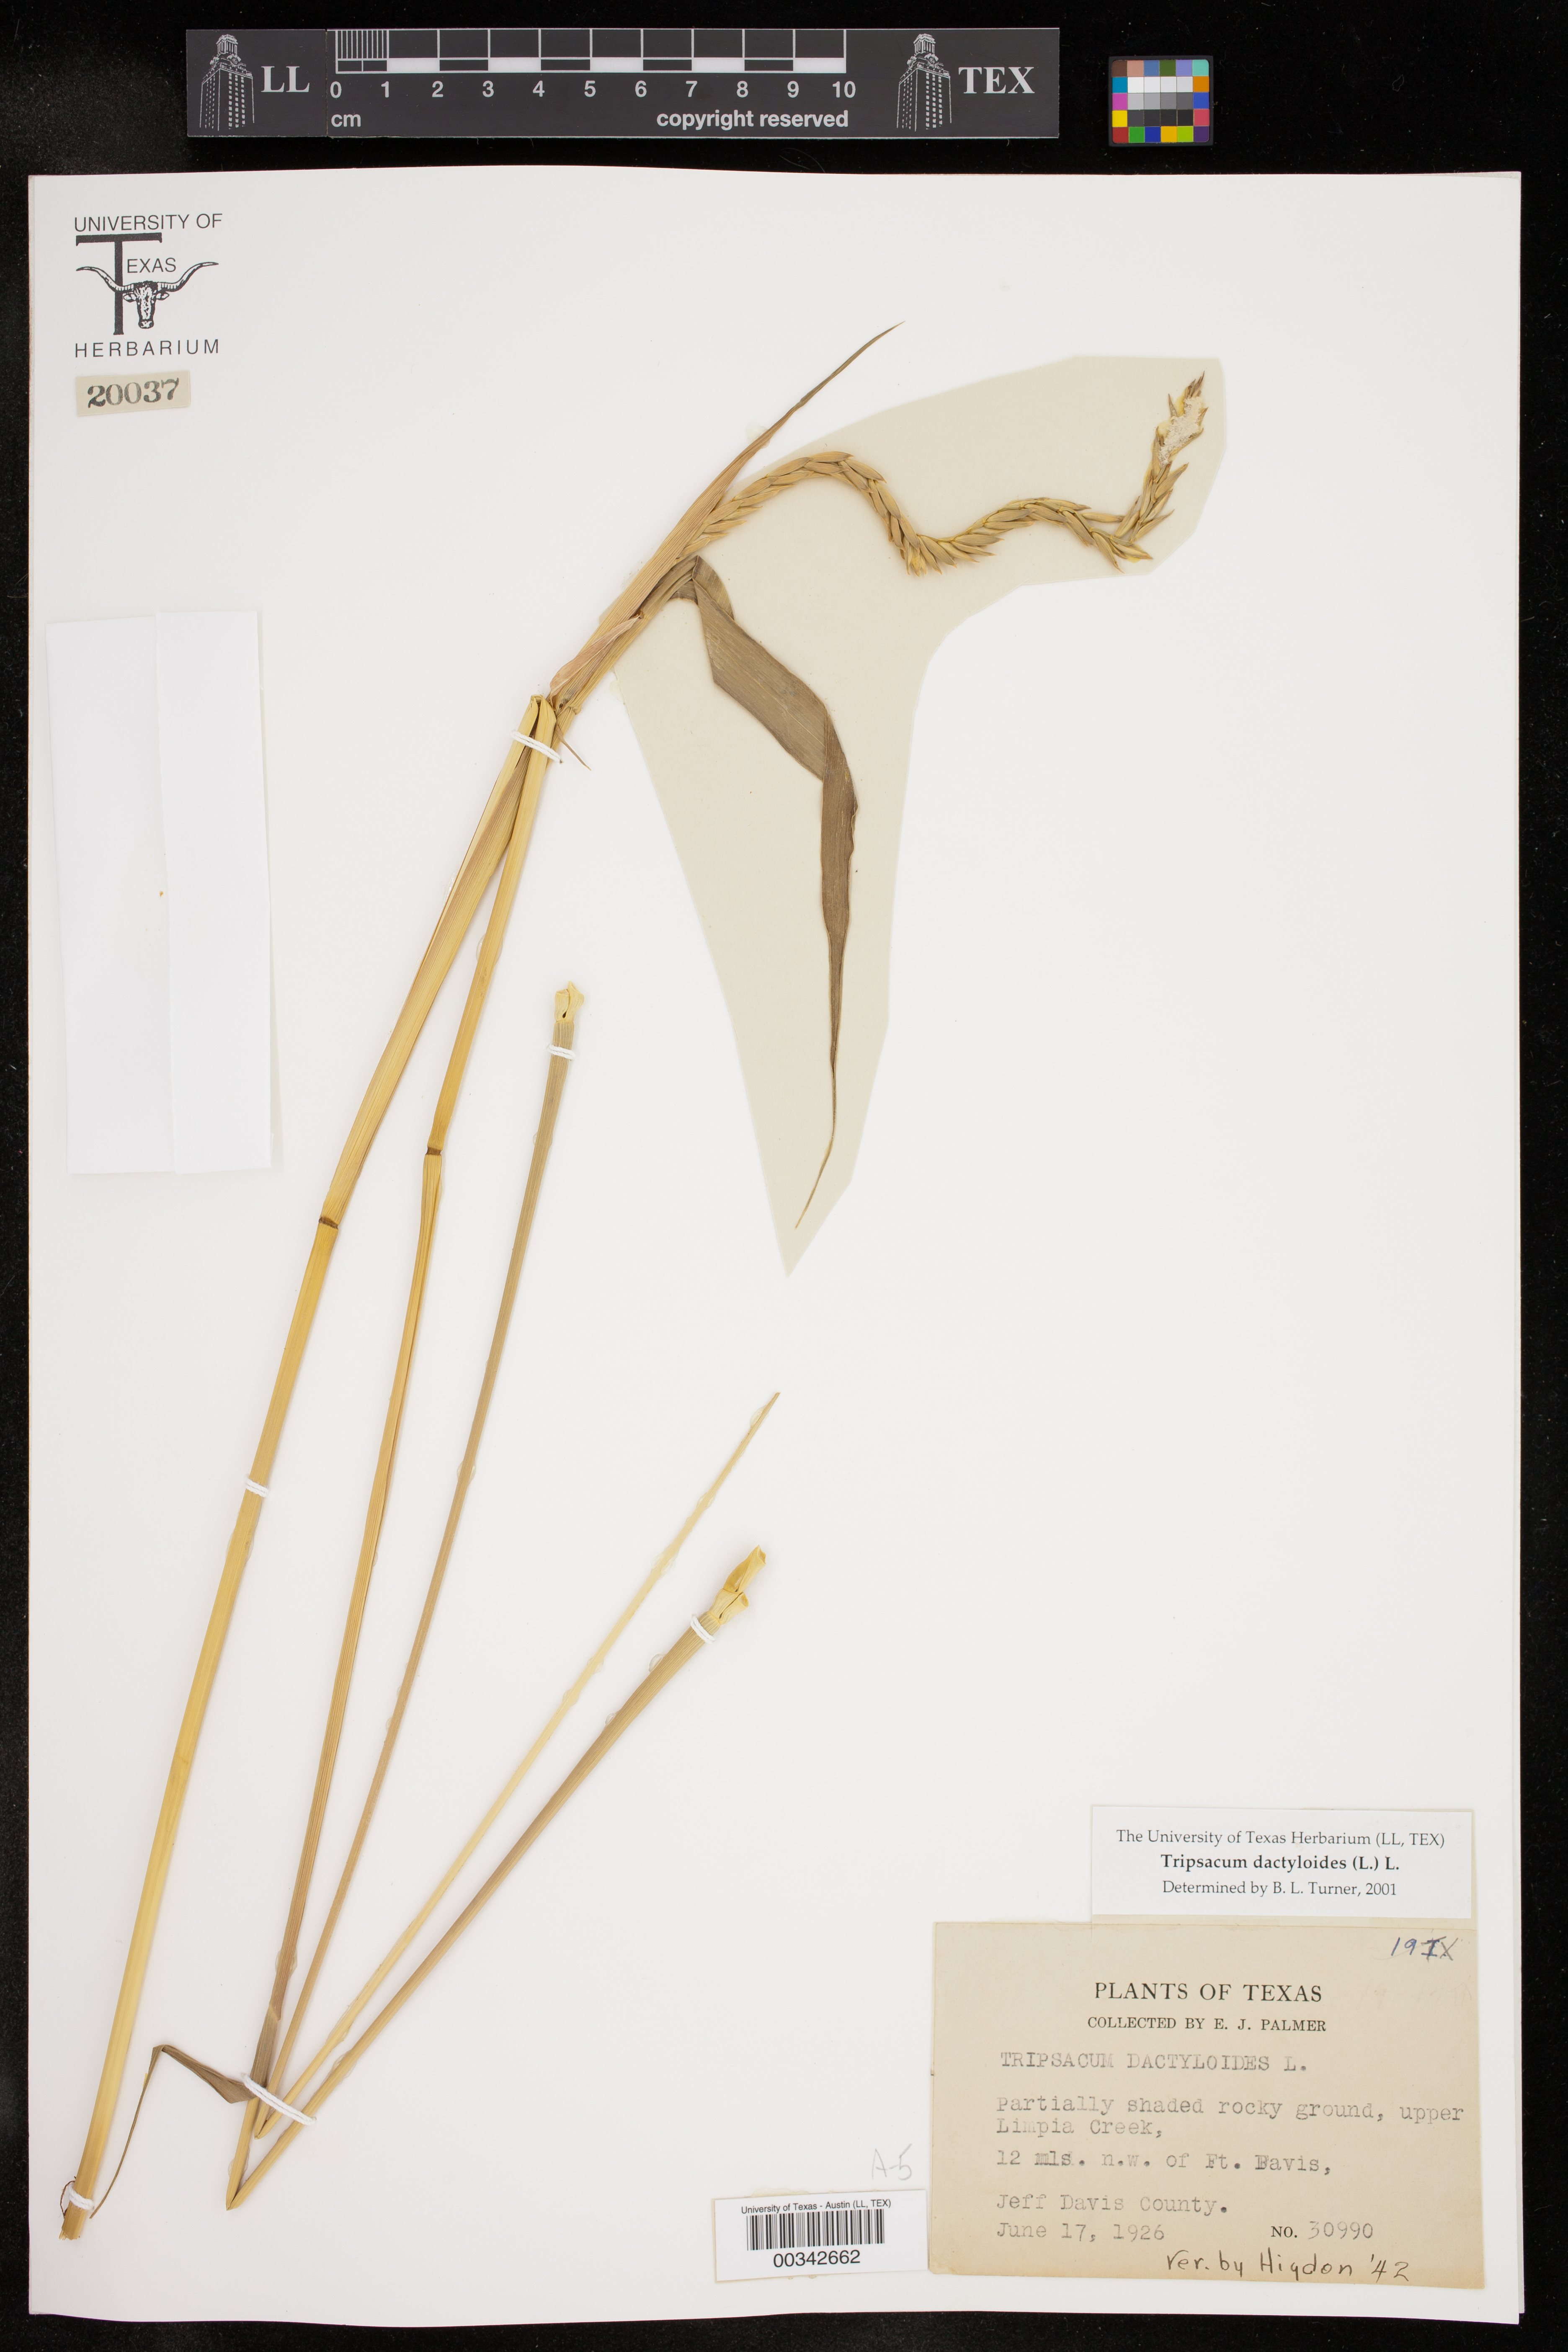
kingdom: Plantae
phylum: Tracheophyta
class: Liliopsida
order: Poales
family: Poaceae
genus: Tripsacum
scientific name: Tripsacum dactyloides
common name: Buffalo-grass
